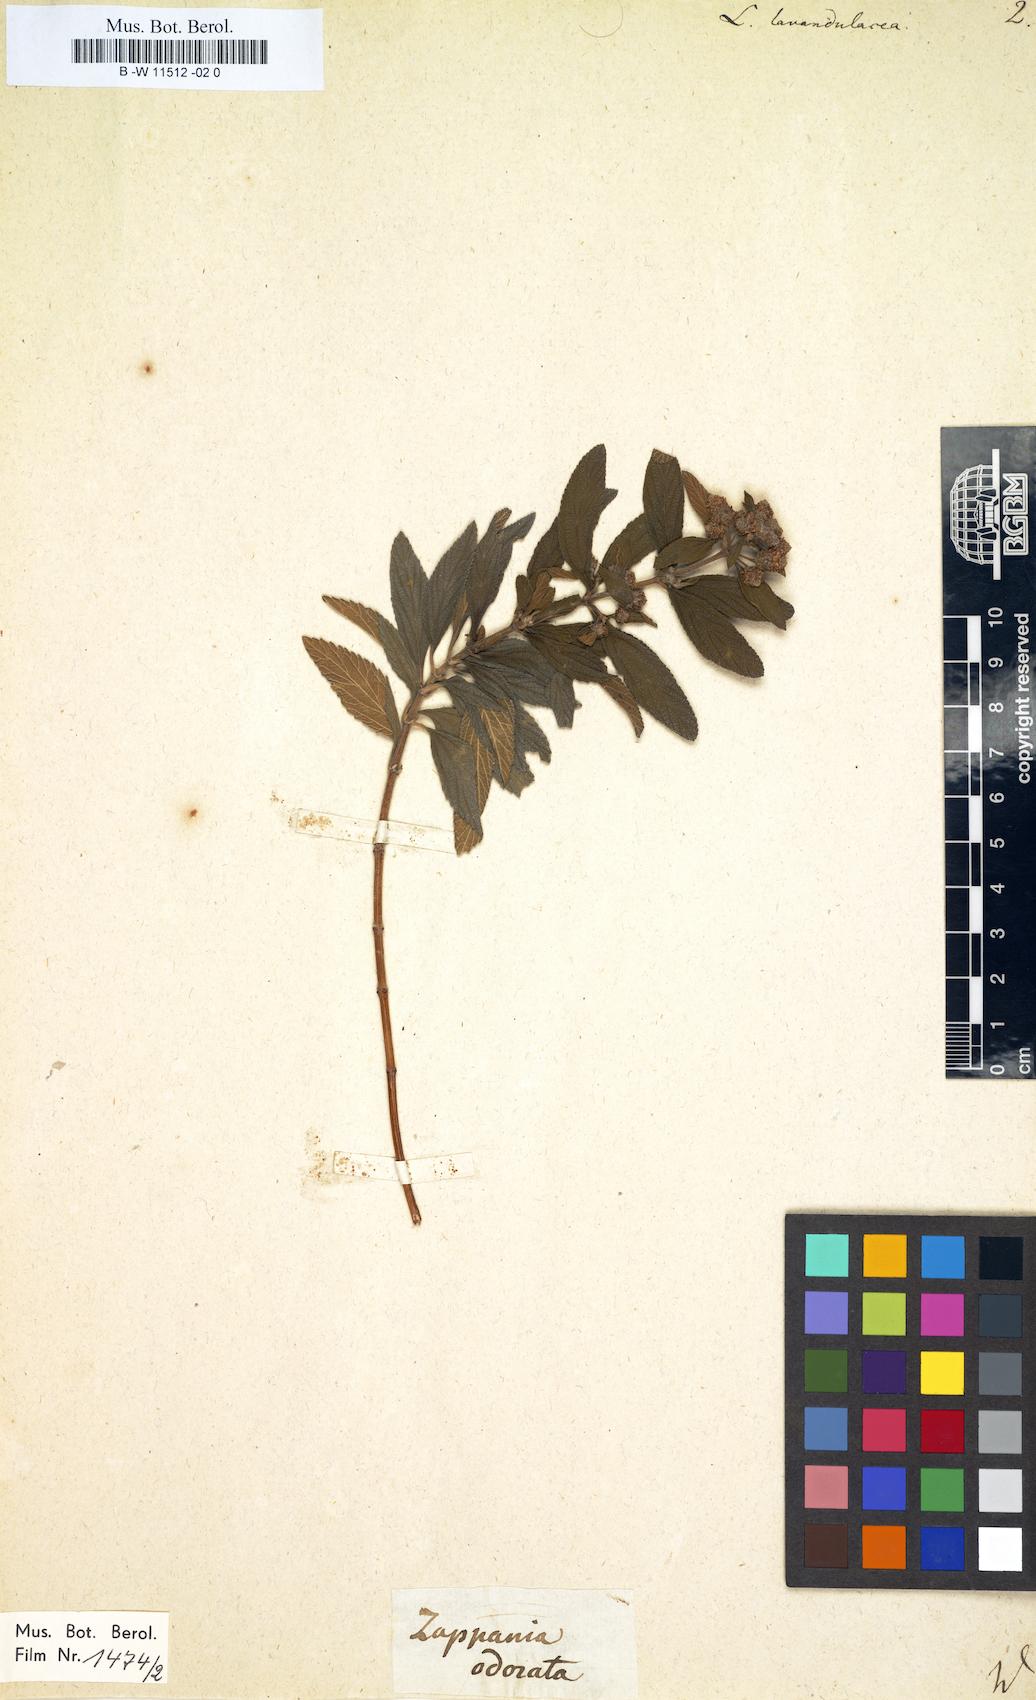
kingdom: Plantae
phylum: Tracheophyta
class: Magnoliopsida
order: Lamiales
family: Verbenaceae
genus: Lippia
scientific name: Lippia javanica
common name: Lemonbush
